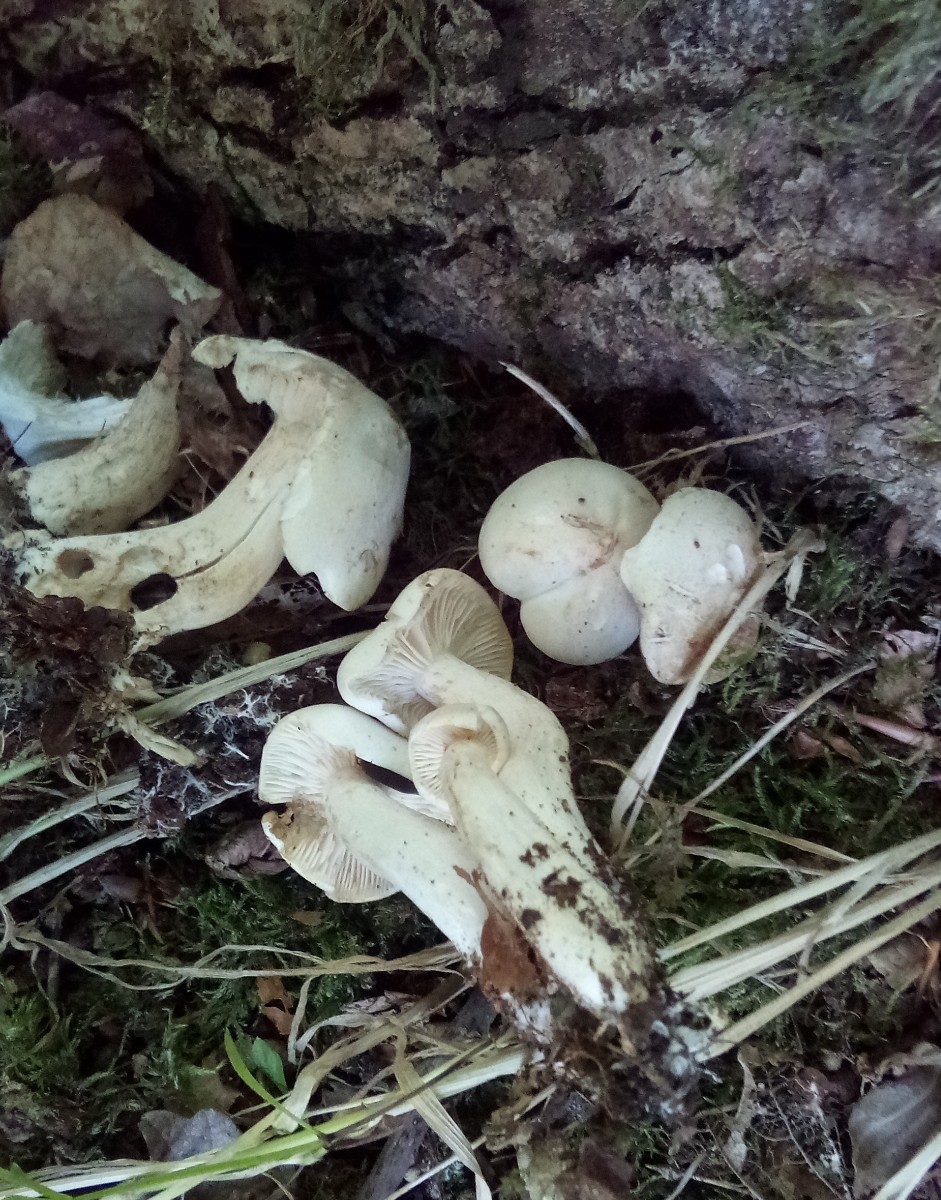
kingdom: Fungi
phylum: Basidiomycota
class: Agaricomycetes
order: Agaricales
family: Tricholomataceae
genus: Tricholoma
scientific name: Tricholoma album
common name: honning-ridderhat
